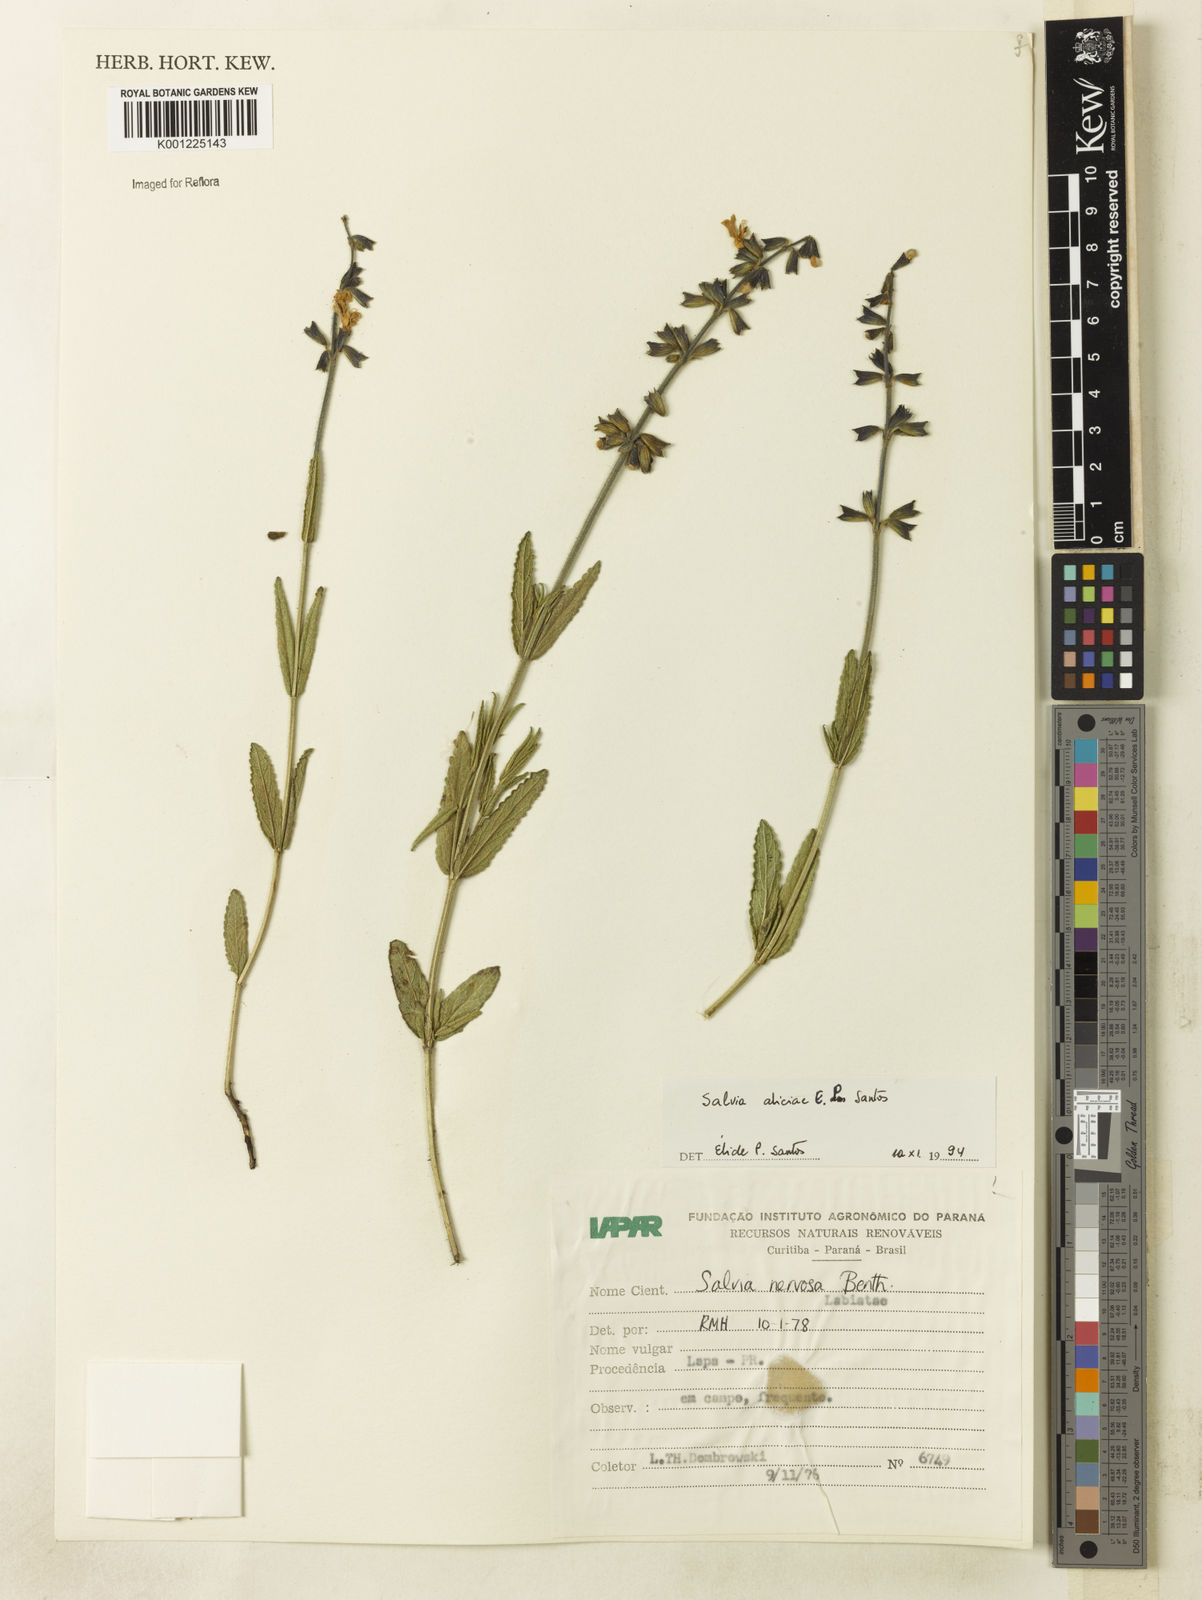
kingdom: Plantae
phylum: Tracheophyta
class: Magnoliopsida
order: Lamiales
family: Lamiaceae
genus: Salvia
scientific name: Salvia aliciae
